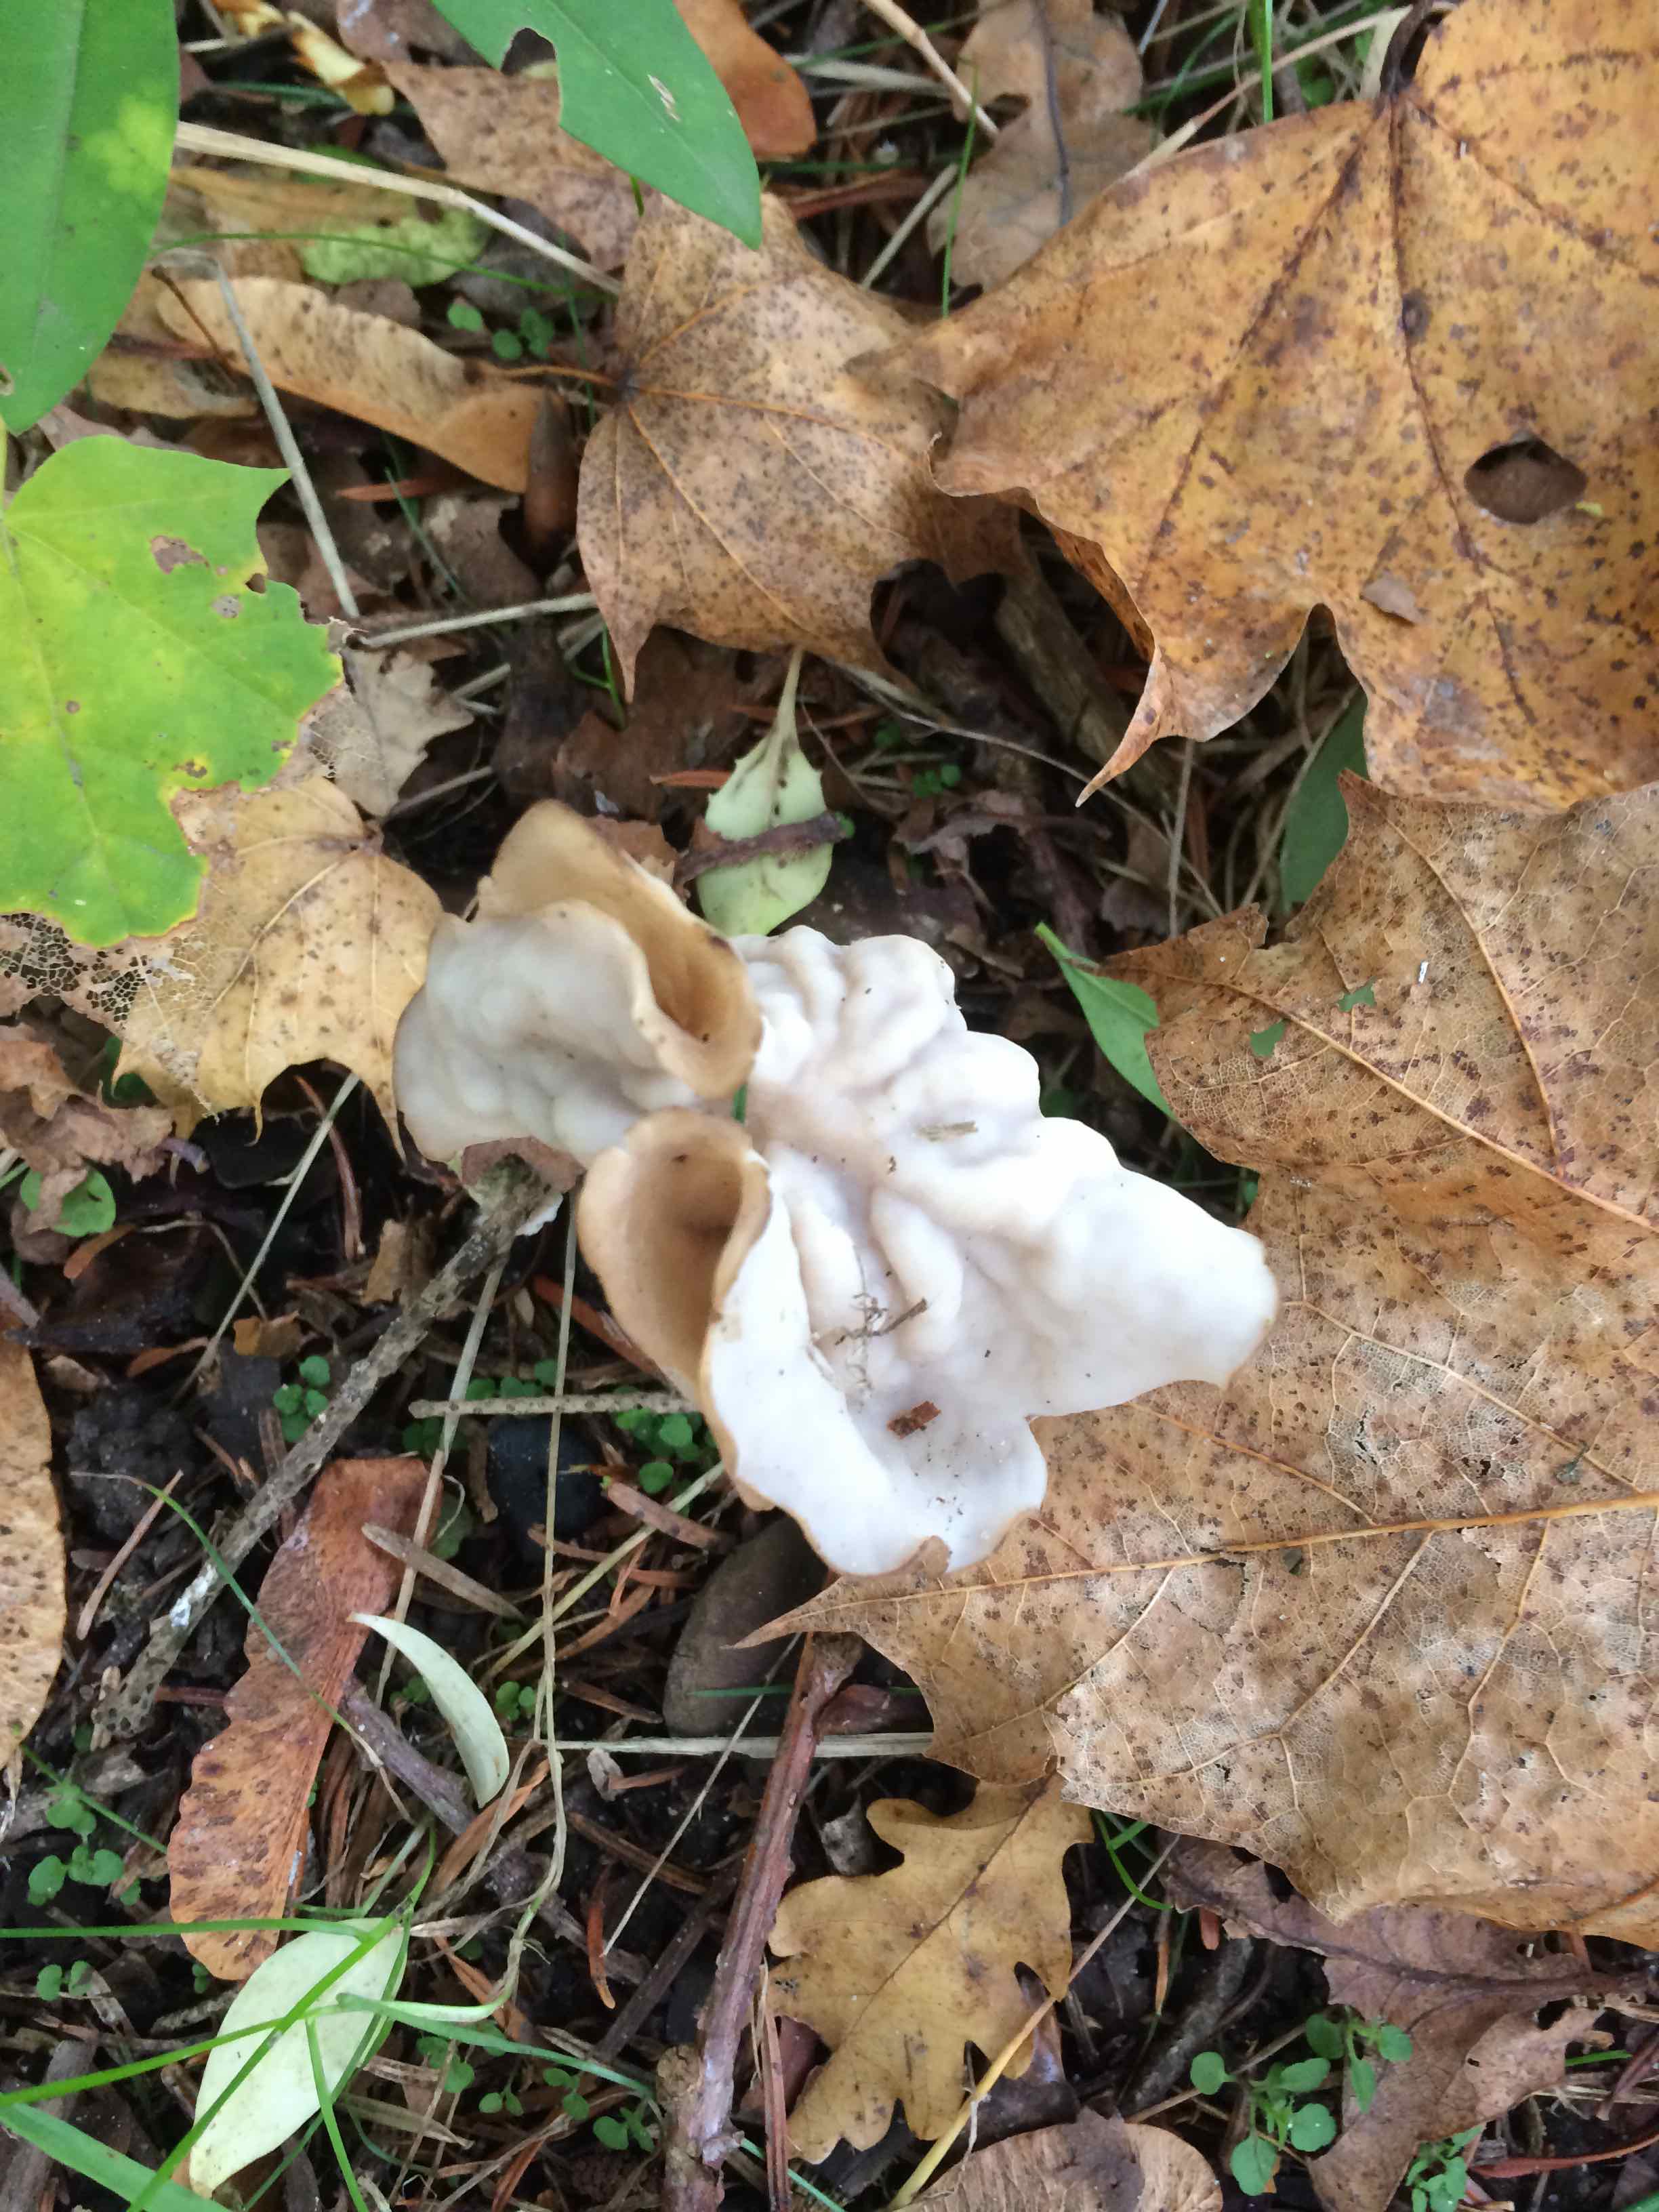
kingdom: Fungi
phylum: Ascomycota
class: Pezizomycetes
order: Pezizales
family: Helvellaceae
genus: Helvella
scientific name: Helvella crispa
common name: kruset foldhat
